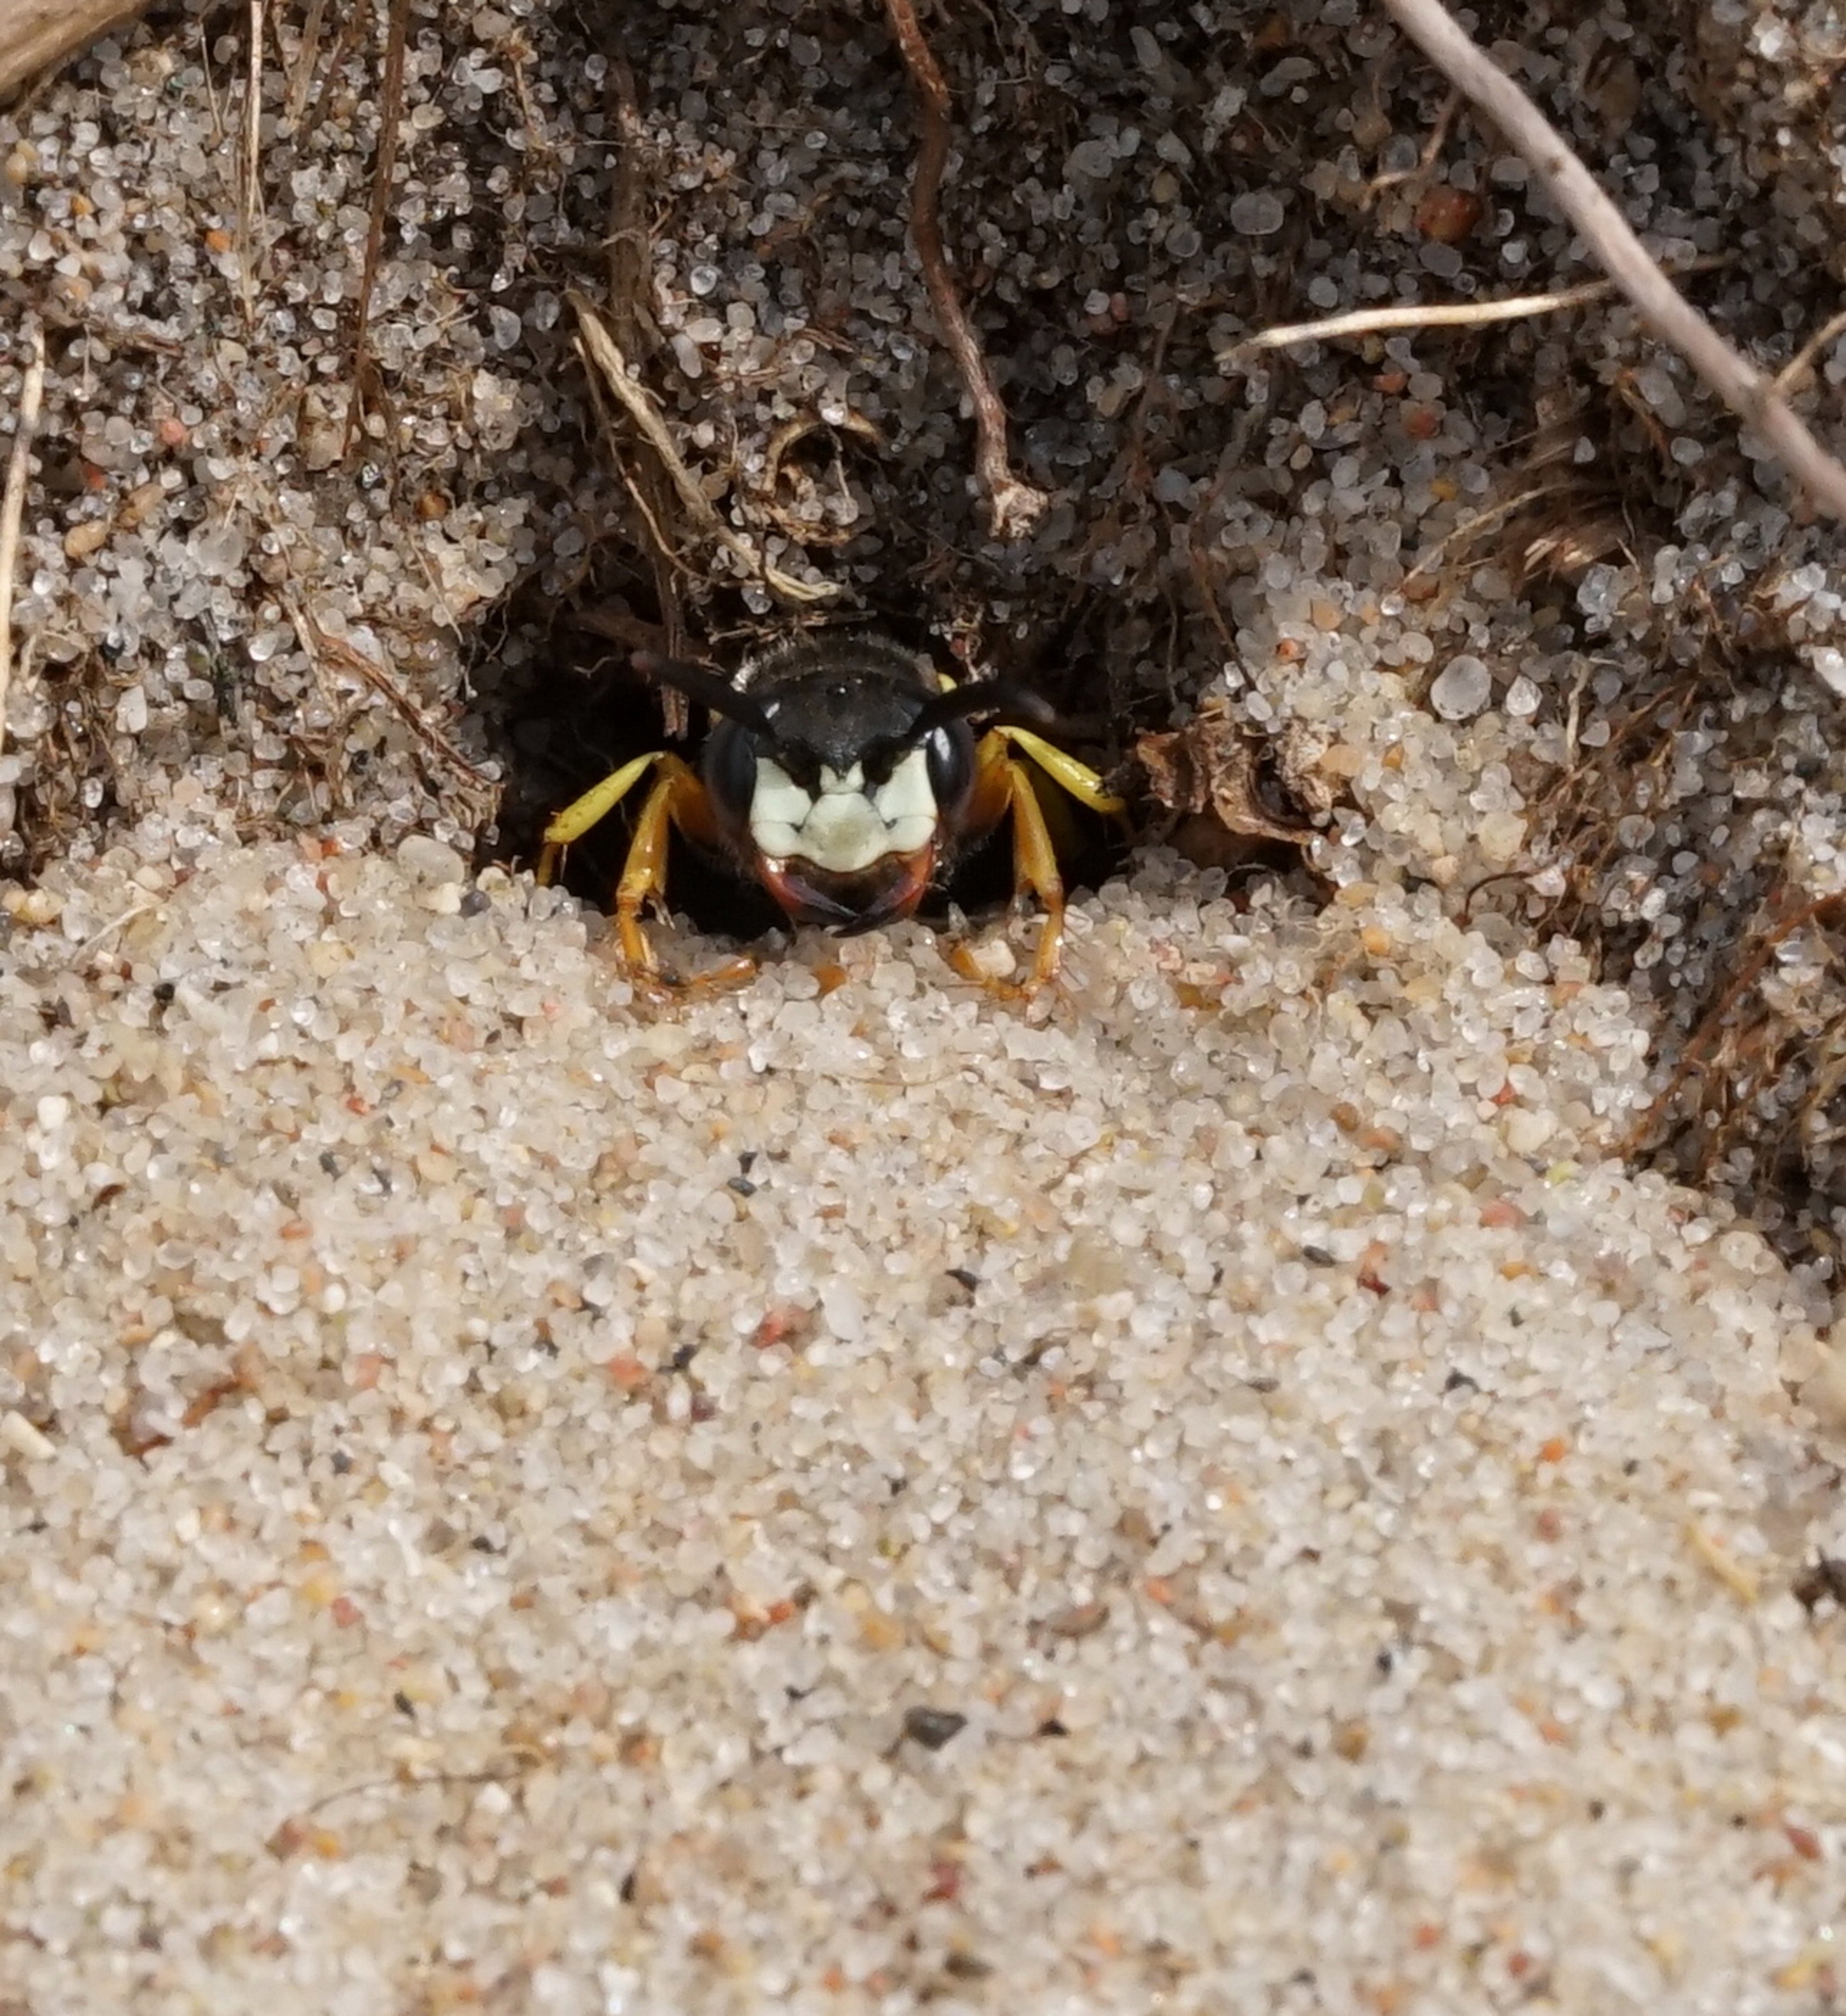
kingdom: Animalia
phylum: Arthropoda
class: Insecta
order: Hymenoptera
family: Crabronidae
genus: Philanthus
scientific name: Philanthus triangulum
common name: Biulv
